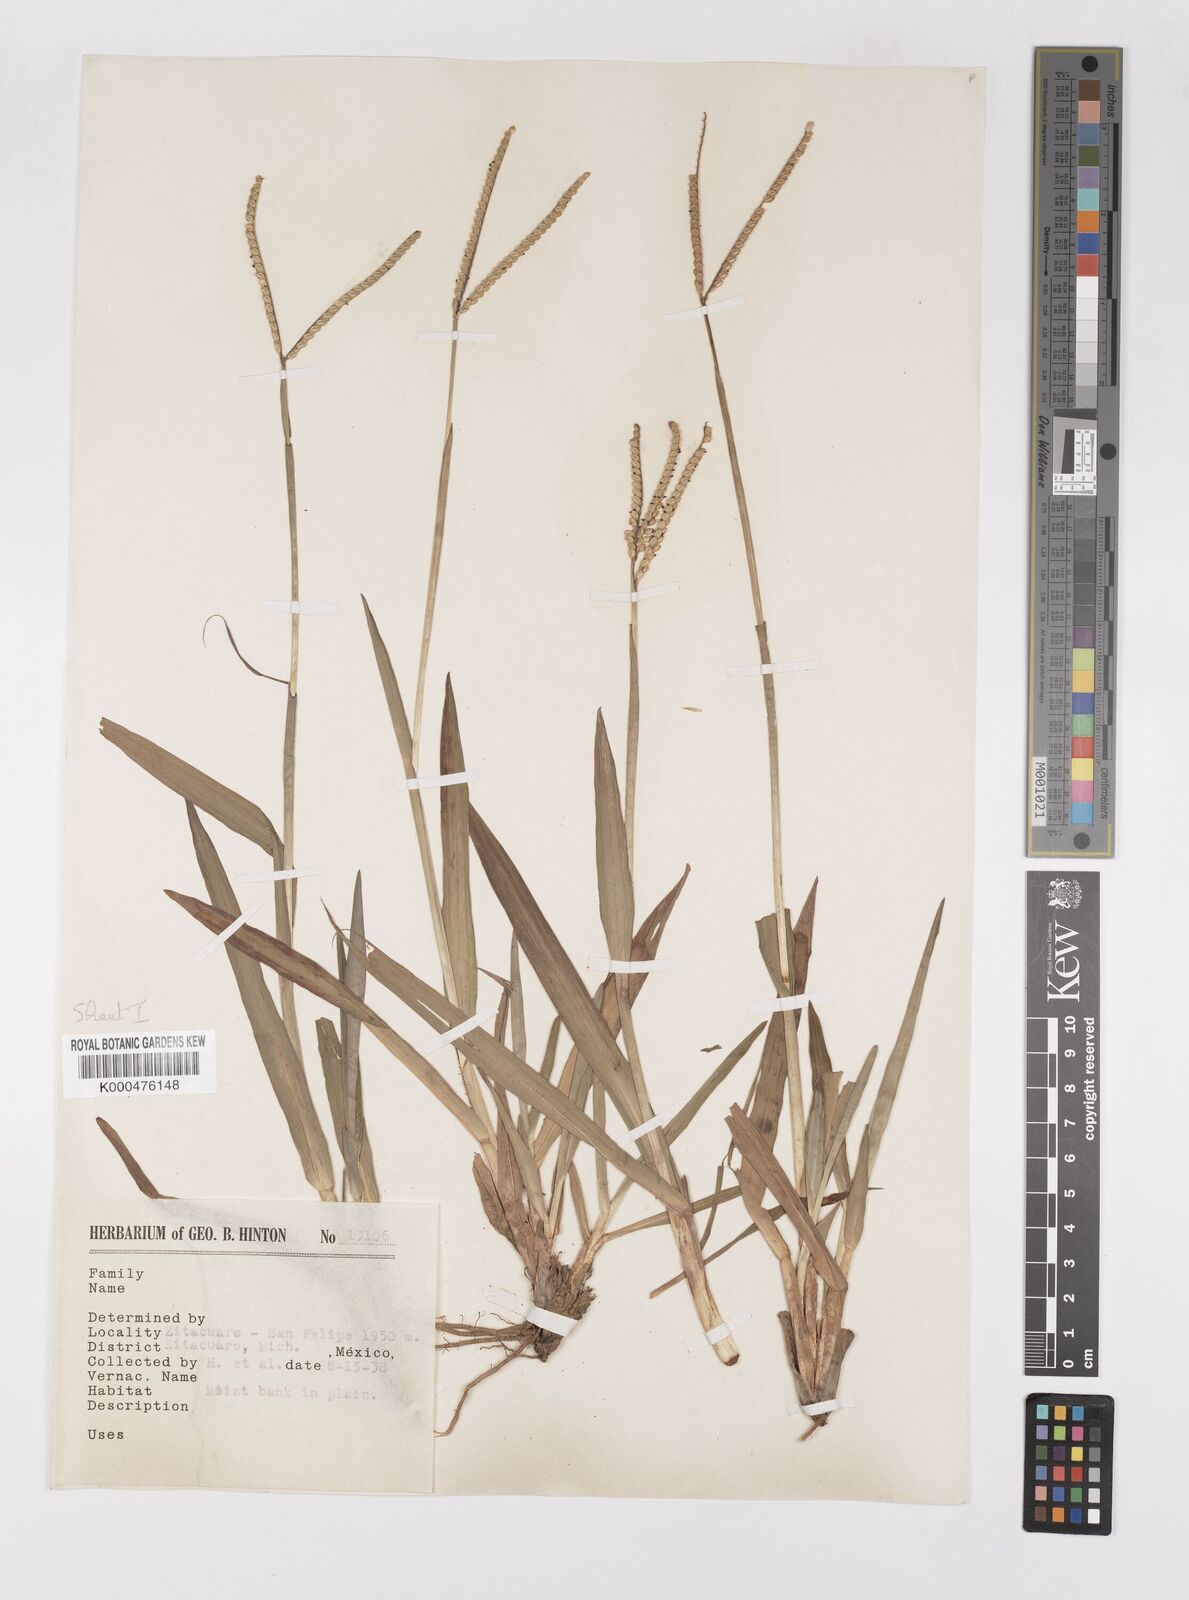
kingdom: Plantae
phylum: Tracheophyta
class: Liliopsida
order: Poales
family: Poaceae
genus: Paspalum
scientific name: Paspalum
